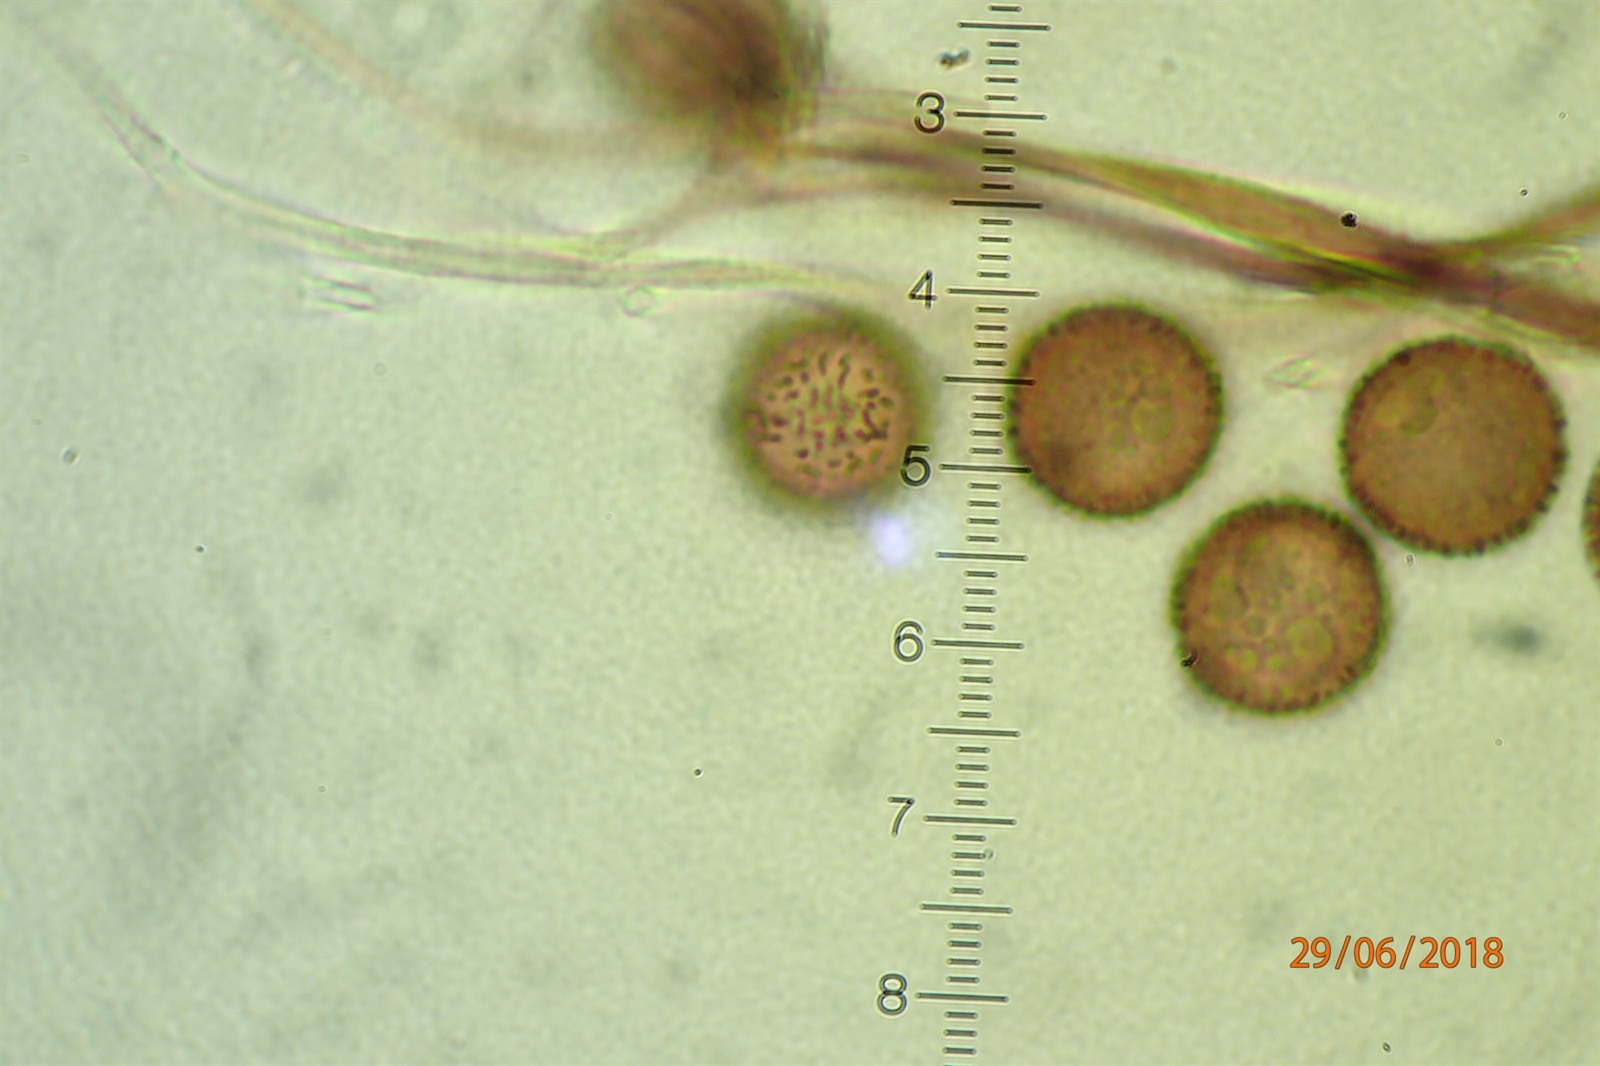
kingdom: Protozoa
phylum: Mycetozoa
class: Myxomycetes
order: Stemonitidales
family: Stemonitidaceae
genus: Lamproderma
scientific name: Lamproderma spinulosporum
